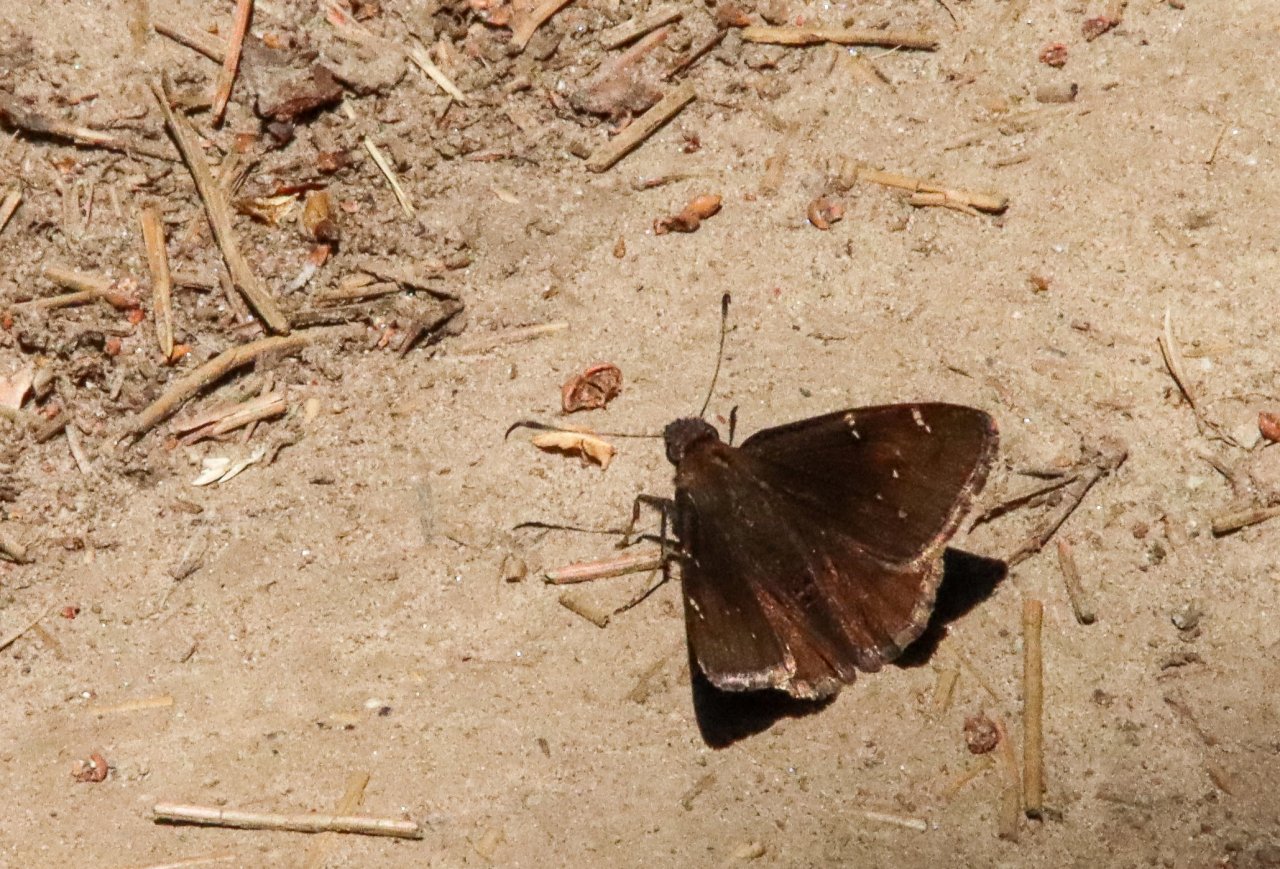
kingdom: Animalia
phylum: Arthropoda
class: Insecta
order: Lepidoptera
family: Hesperiidae
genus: Autochton
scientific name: Autochton
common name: Northern Cloudywing
